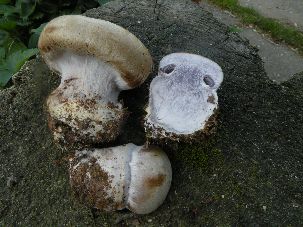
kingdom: Fungi
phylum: Basidiomycota
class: Agaricomycetes
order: Agaricales
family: Cortinariaceae
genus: Cortinarius
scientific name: Cortinarius anserinus
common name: bøge-slørhat
